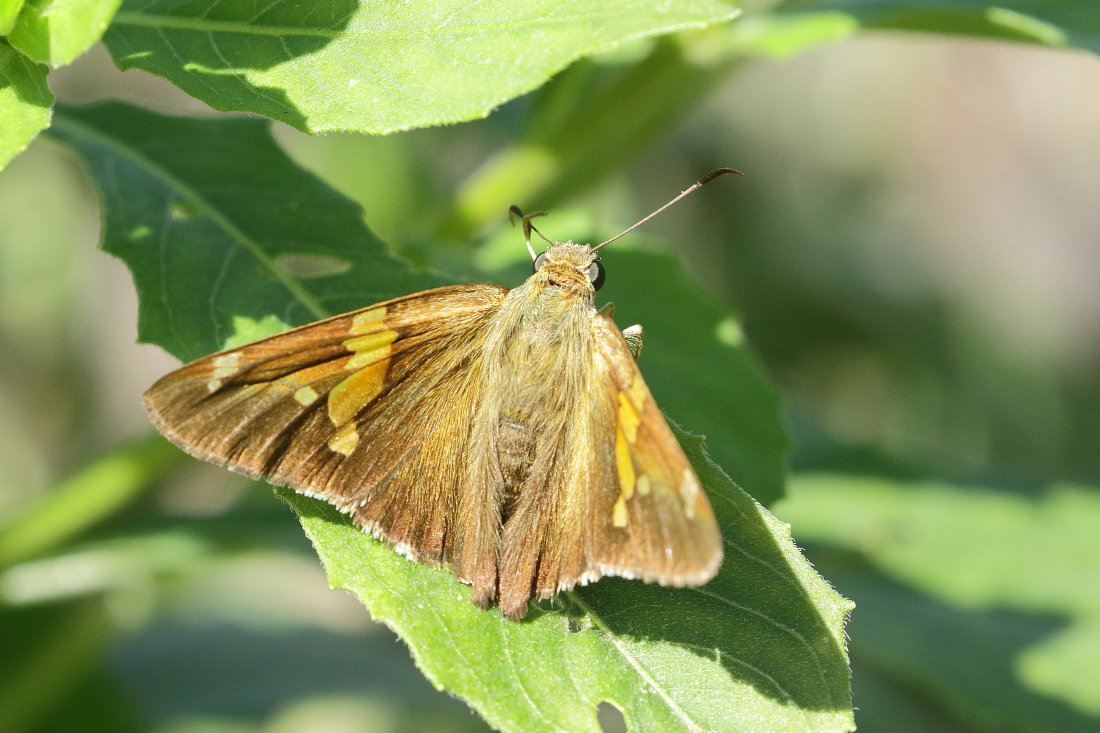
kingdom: Animalia
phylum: Arthropoda
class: Insecta
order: Lepidoptera
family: Hesperiidae
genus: Epargyreus
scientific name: Epargyreus clarus
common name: Silver-spotted Skipper
